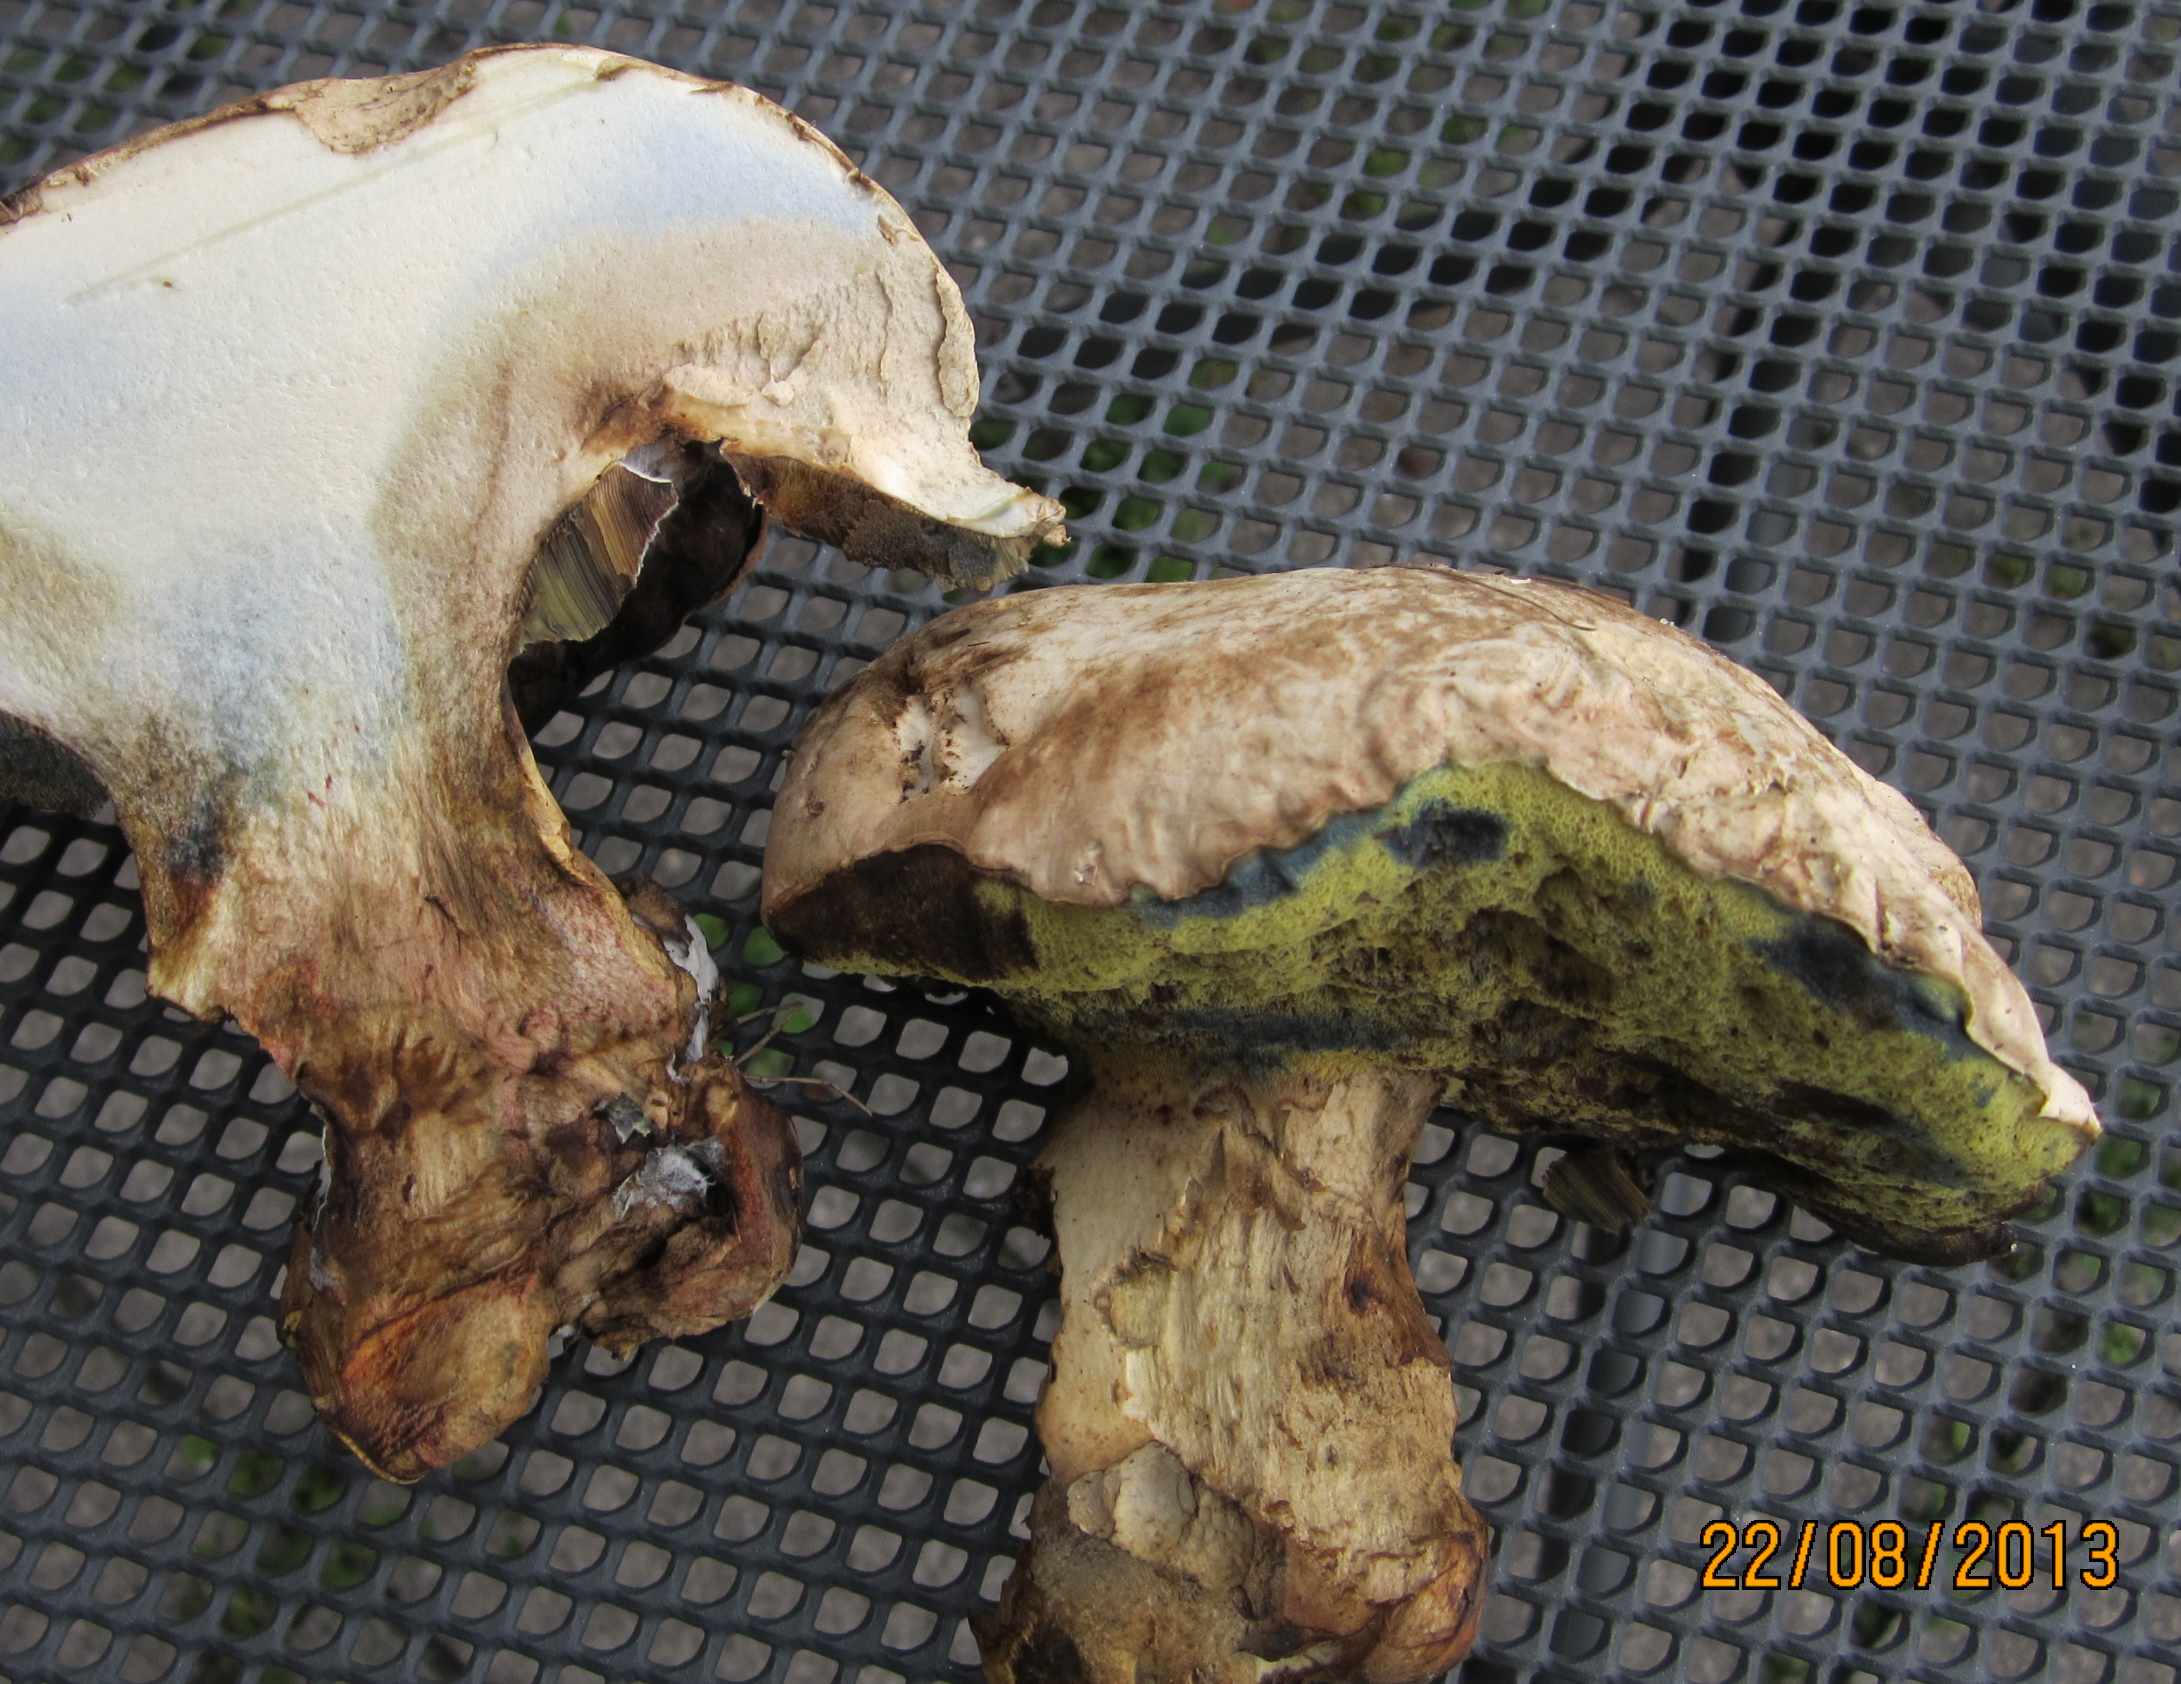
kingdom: Fungi
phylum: Basidiomycota
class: Agaricomycetes
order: Boletales
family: Boletaceae
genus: Caloboletus
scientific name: Caloboletus radicans
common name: rod-rørhat
